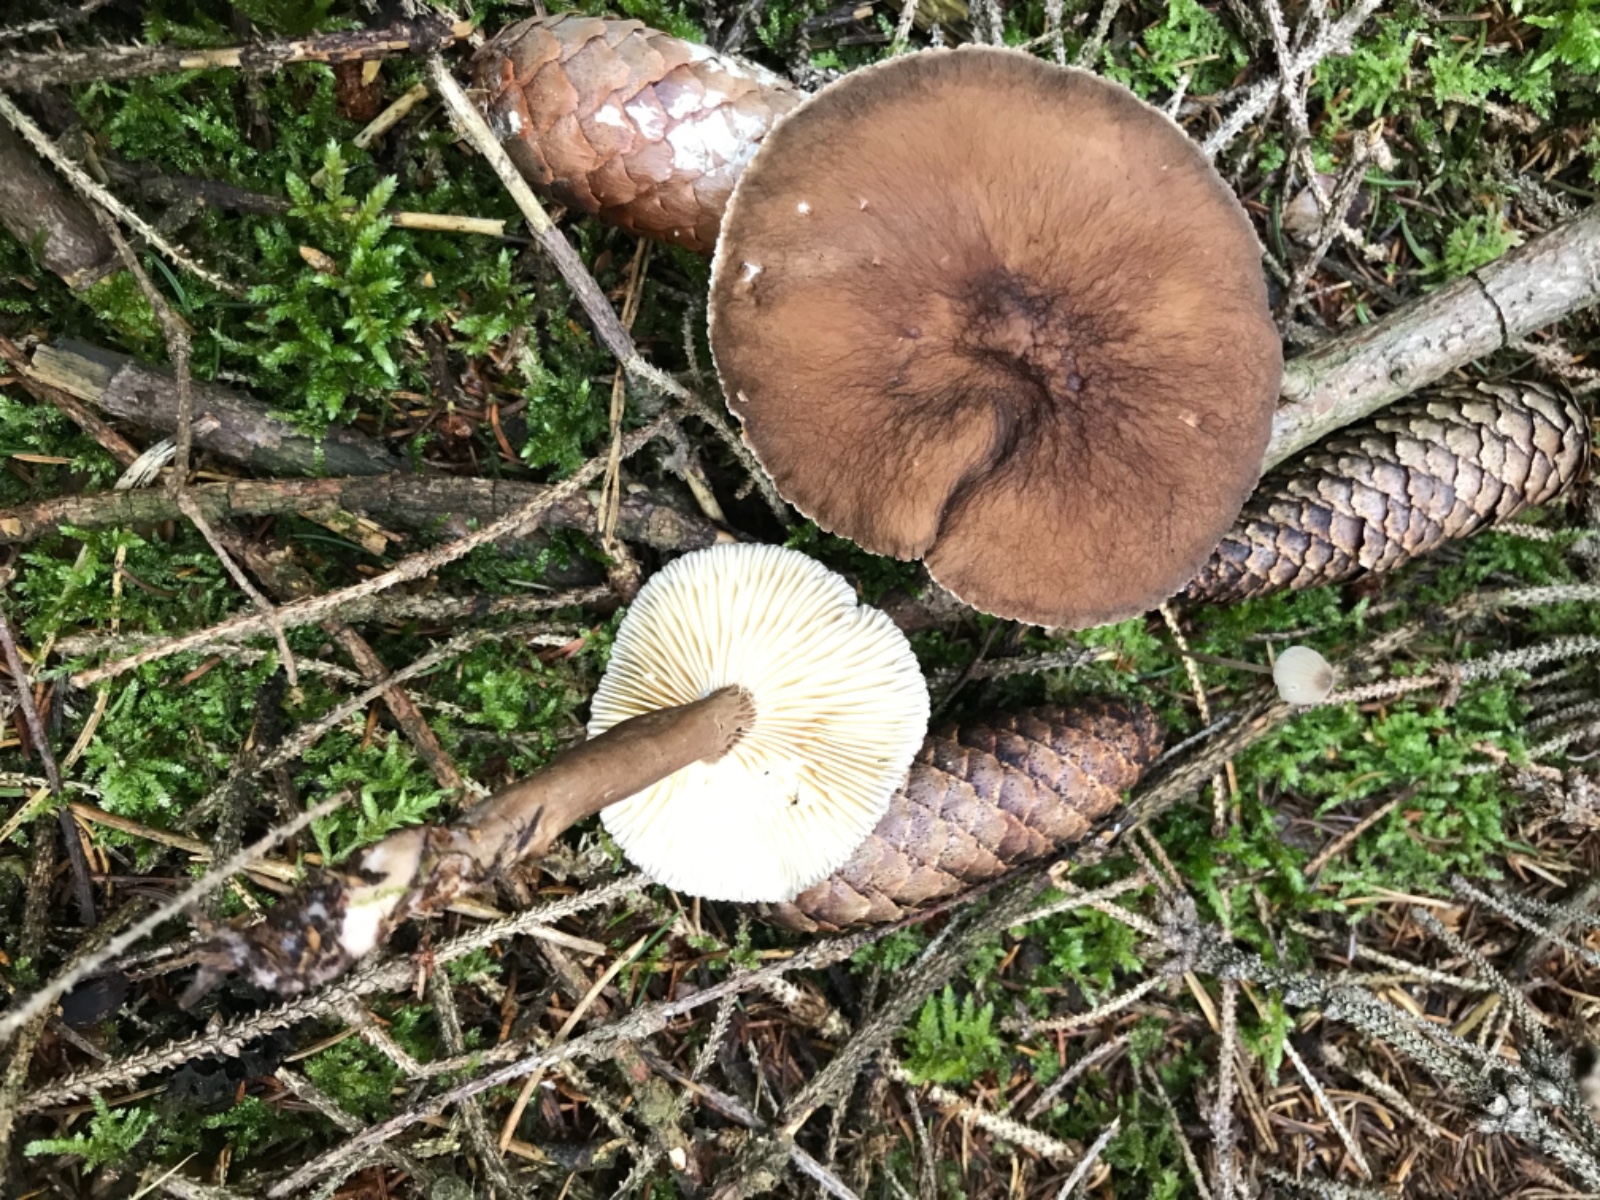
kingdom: Fungi
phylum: Basidiomycota
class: Agaricomycetes
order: Russulales
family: Russulaceae
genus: Lactarius
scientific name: Lactarius lignyotus
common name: fløjls-mælkehat
